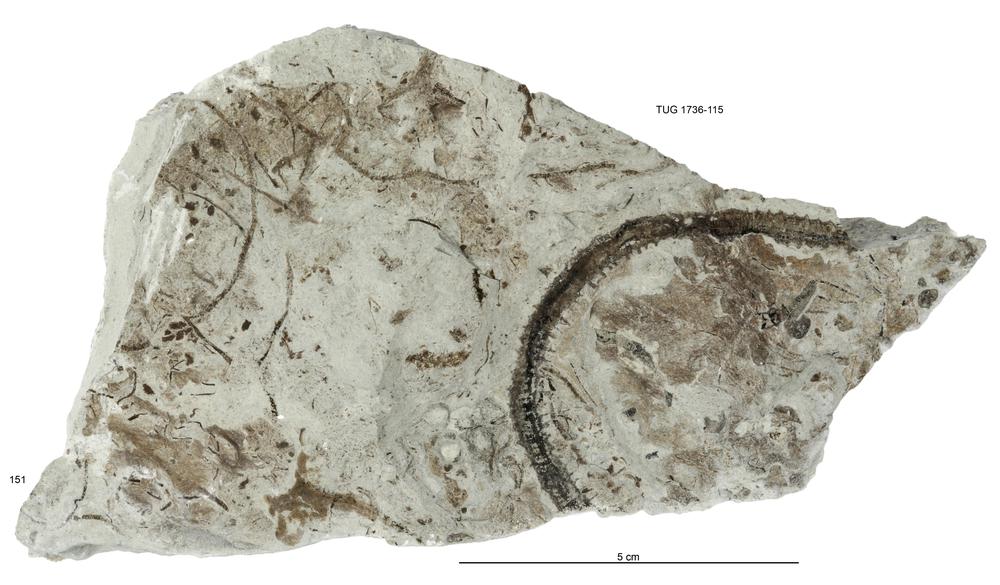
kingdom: Animalia
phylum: Echinodermata
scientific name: Echinodermata
